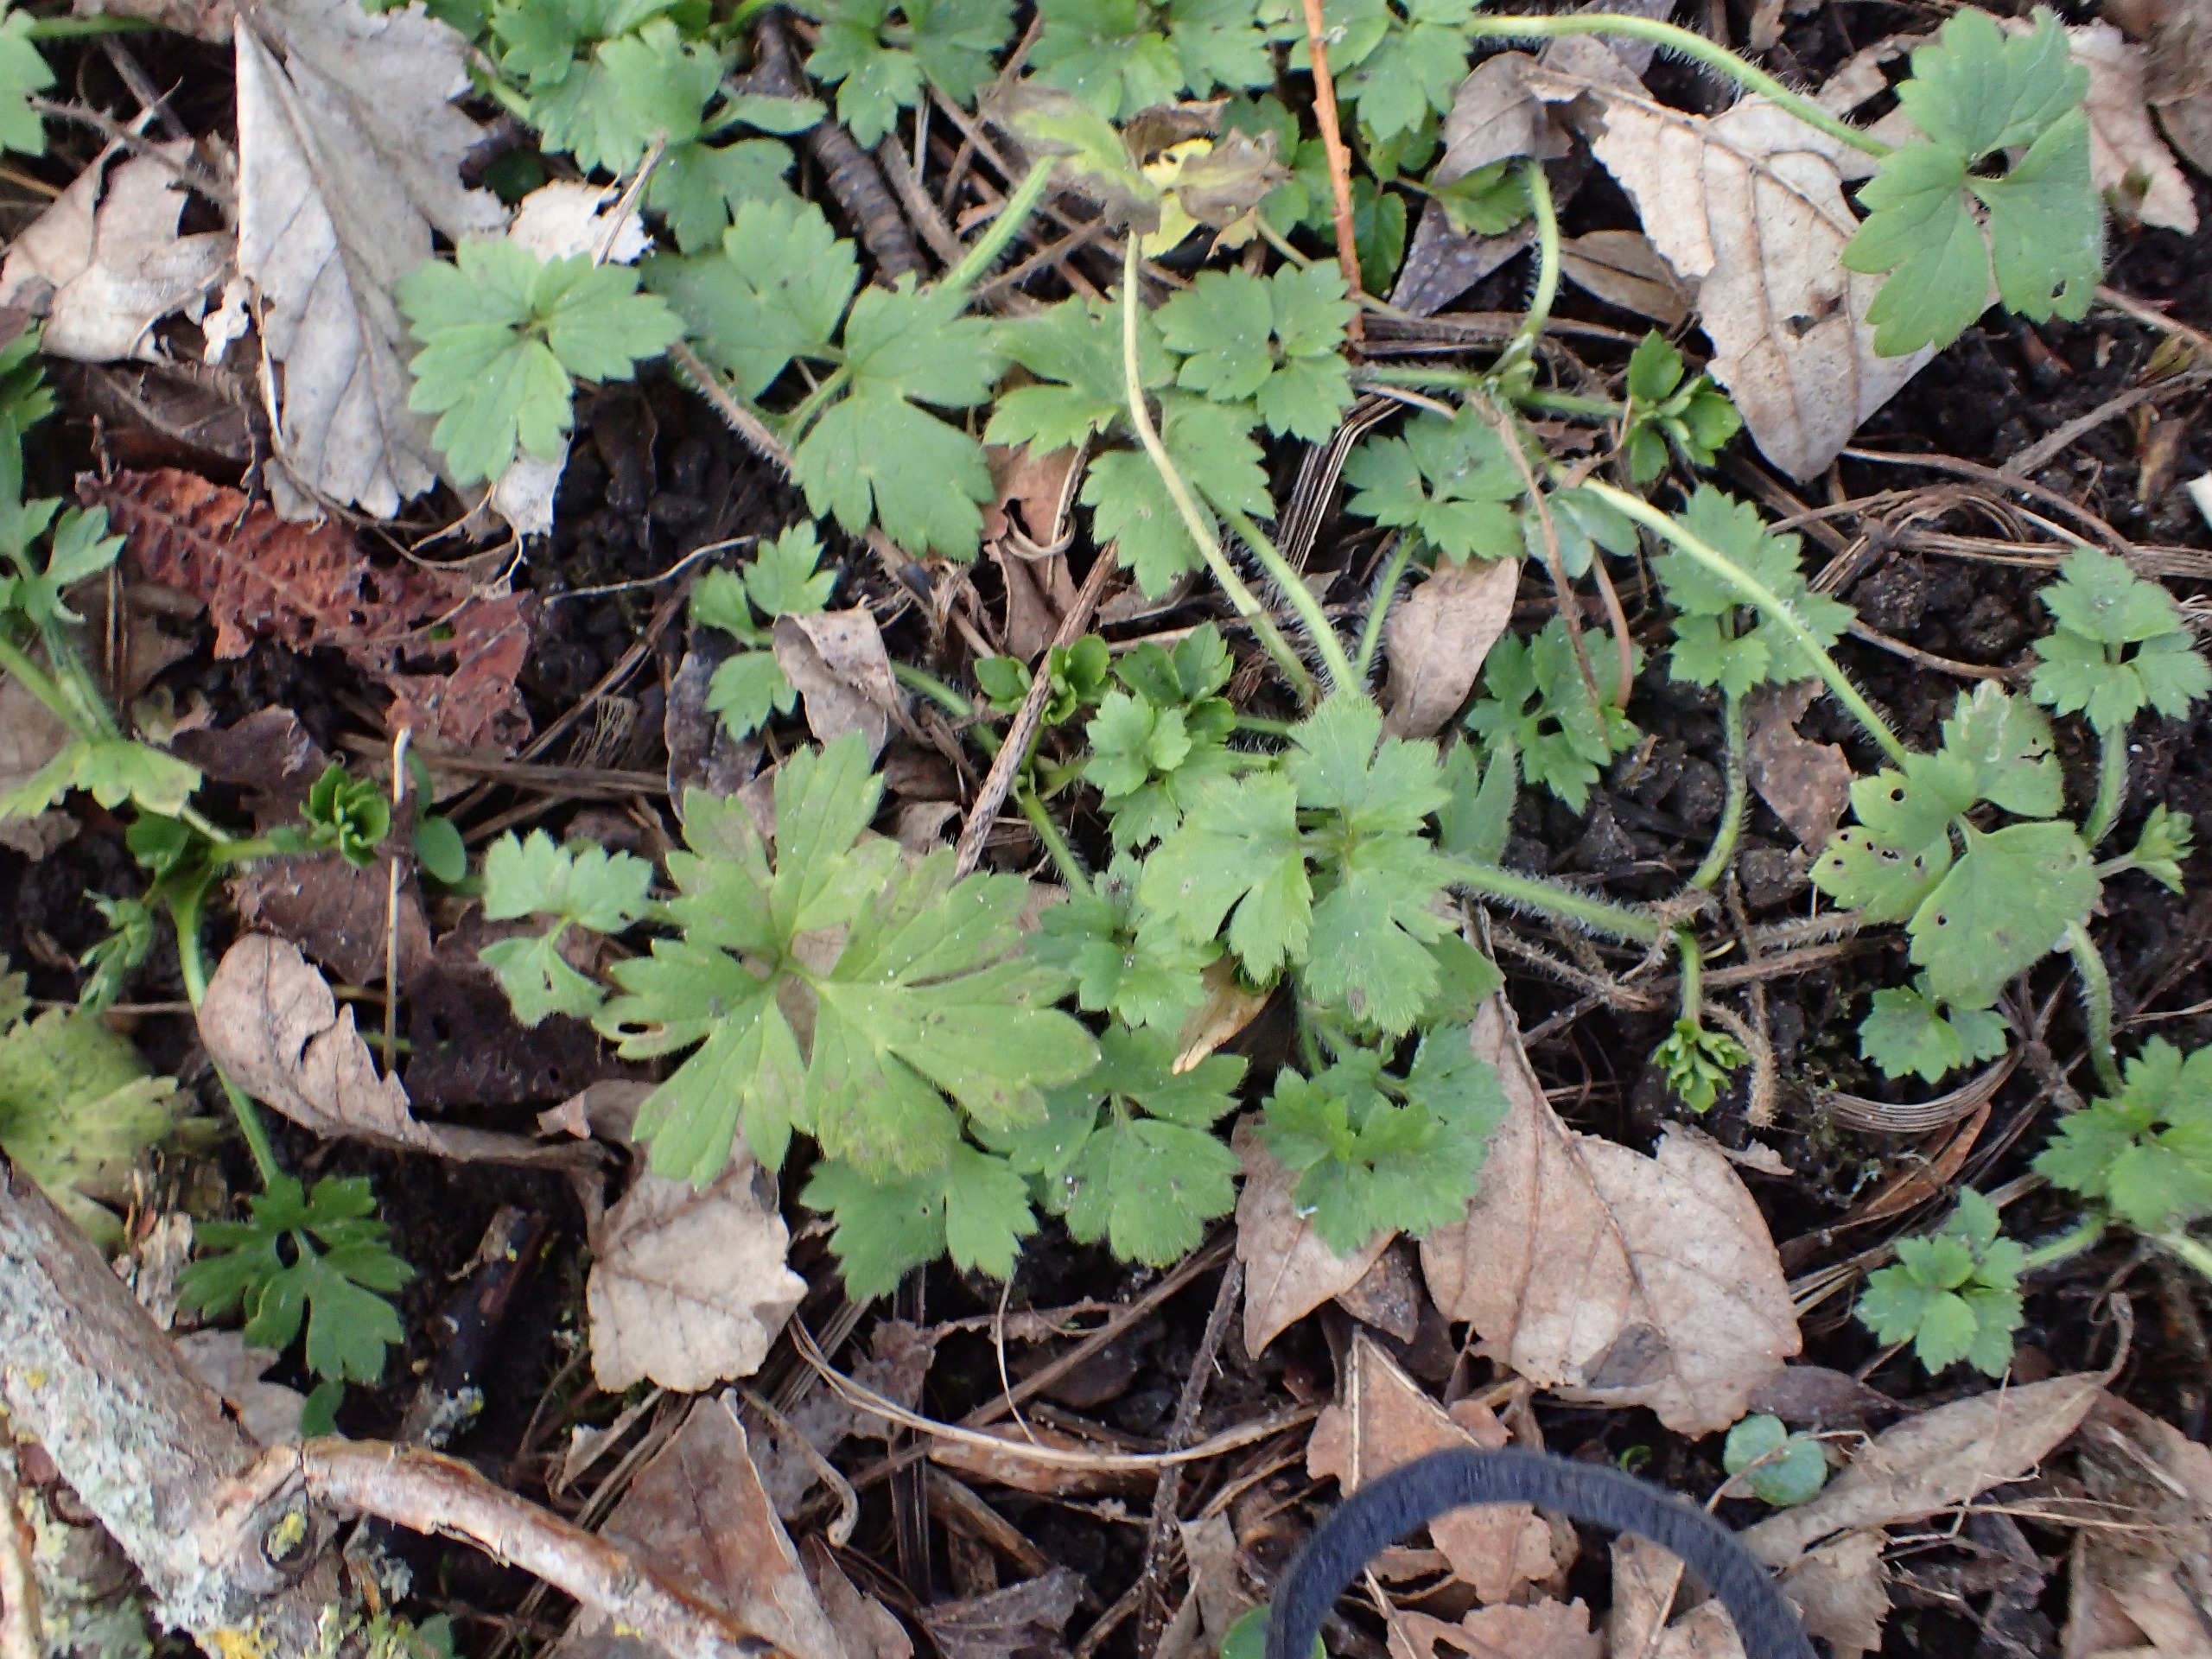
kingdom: Plantae
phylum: Tracheophyta
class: Magnoliopsida
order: Ranunculales
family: Ranunculaceae
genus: Ranunculus
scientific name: Ranunculus repens
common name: Lav ranunkel
